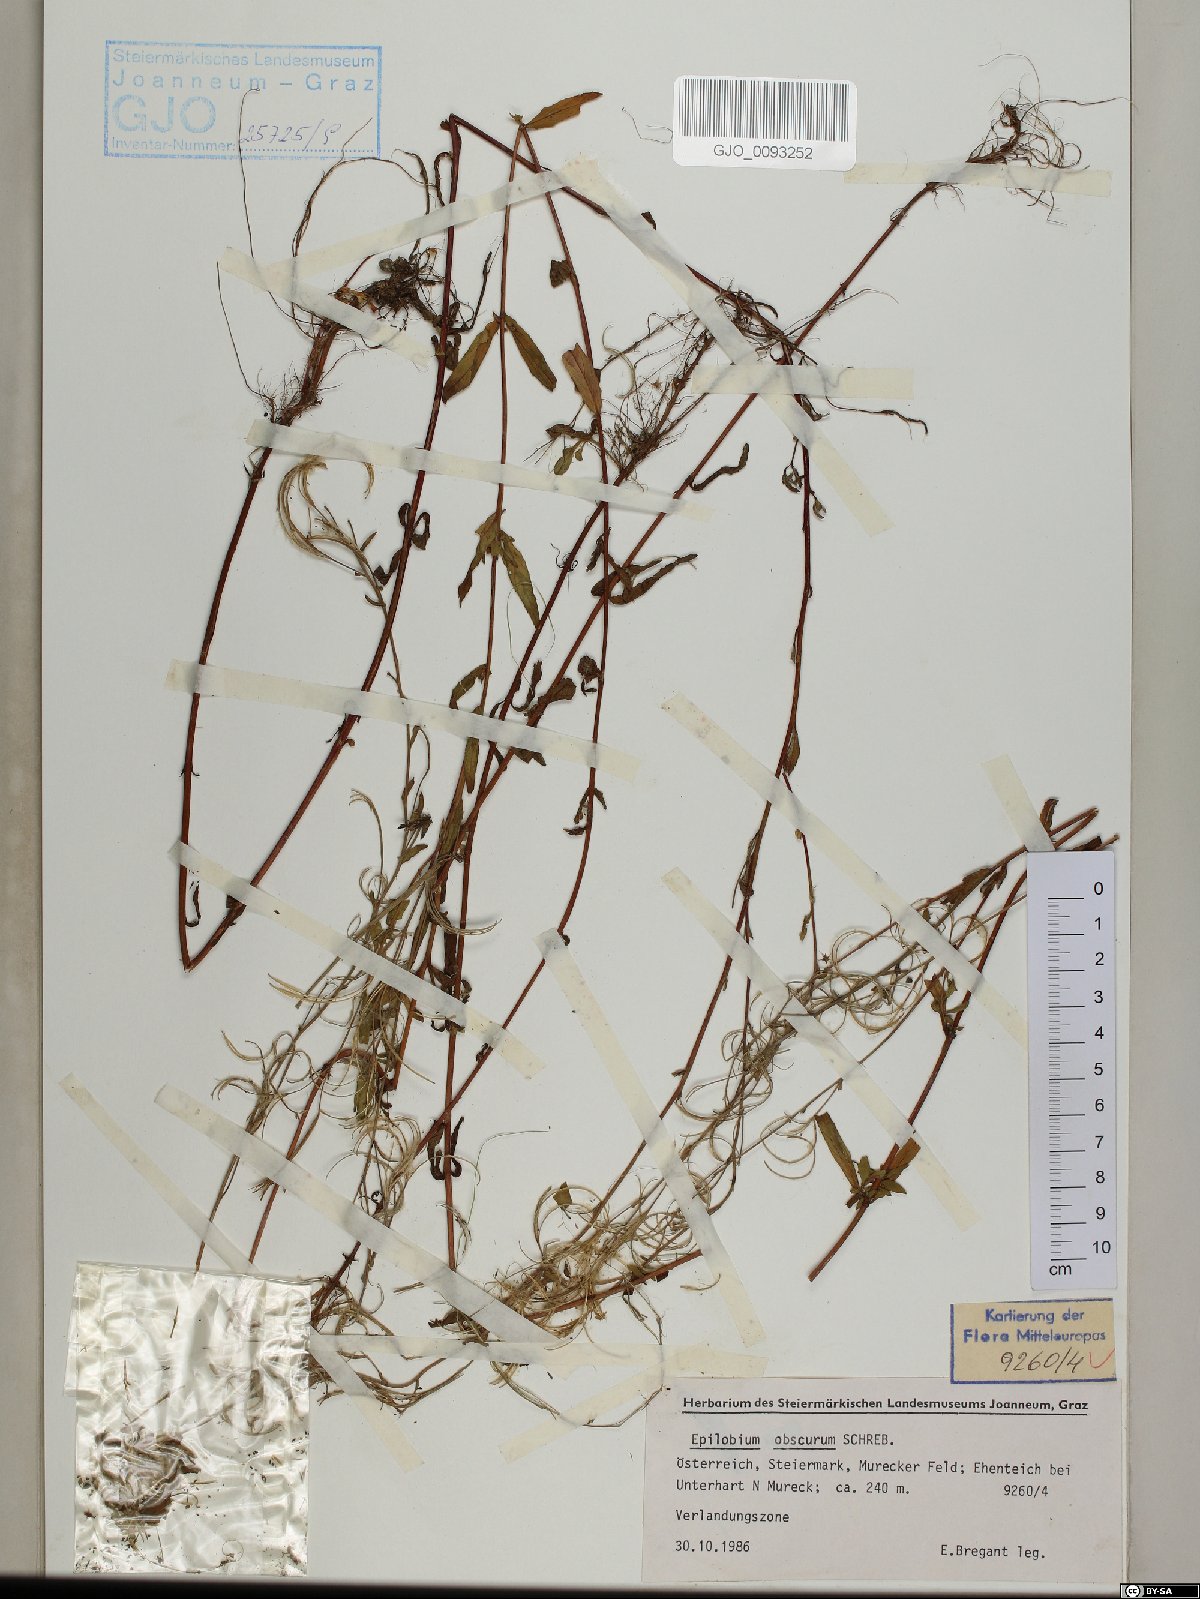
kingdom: Plantae
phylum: Tracheophyta
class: Magnoliopsida
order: Myrtales
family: Onagraceae
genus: Epilobium
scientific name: Epilobium obscurum
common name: Short-fruited willowherb
